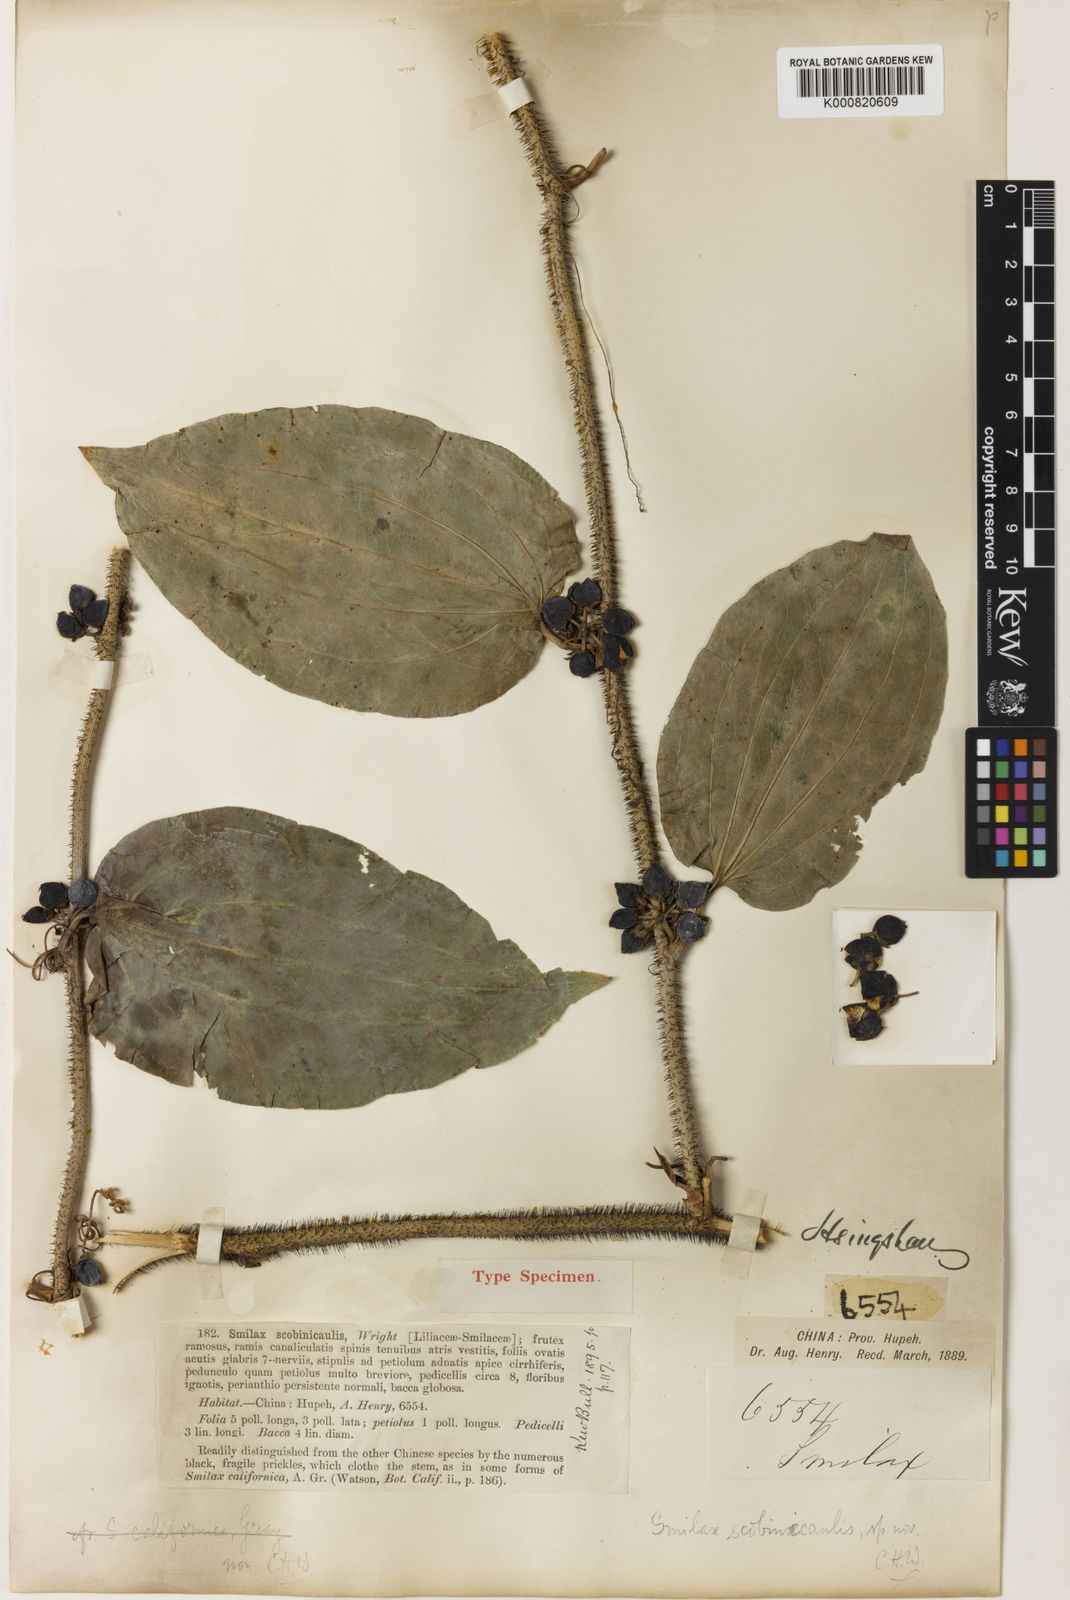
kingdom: Plantae
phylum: Tracheophyta
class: Liliopsida
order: Liliales
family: Smilacaceae
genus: Smilax
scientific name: Smilax scobinicaulis
